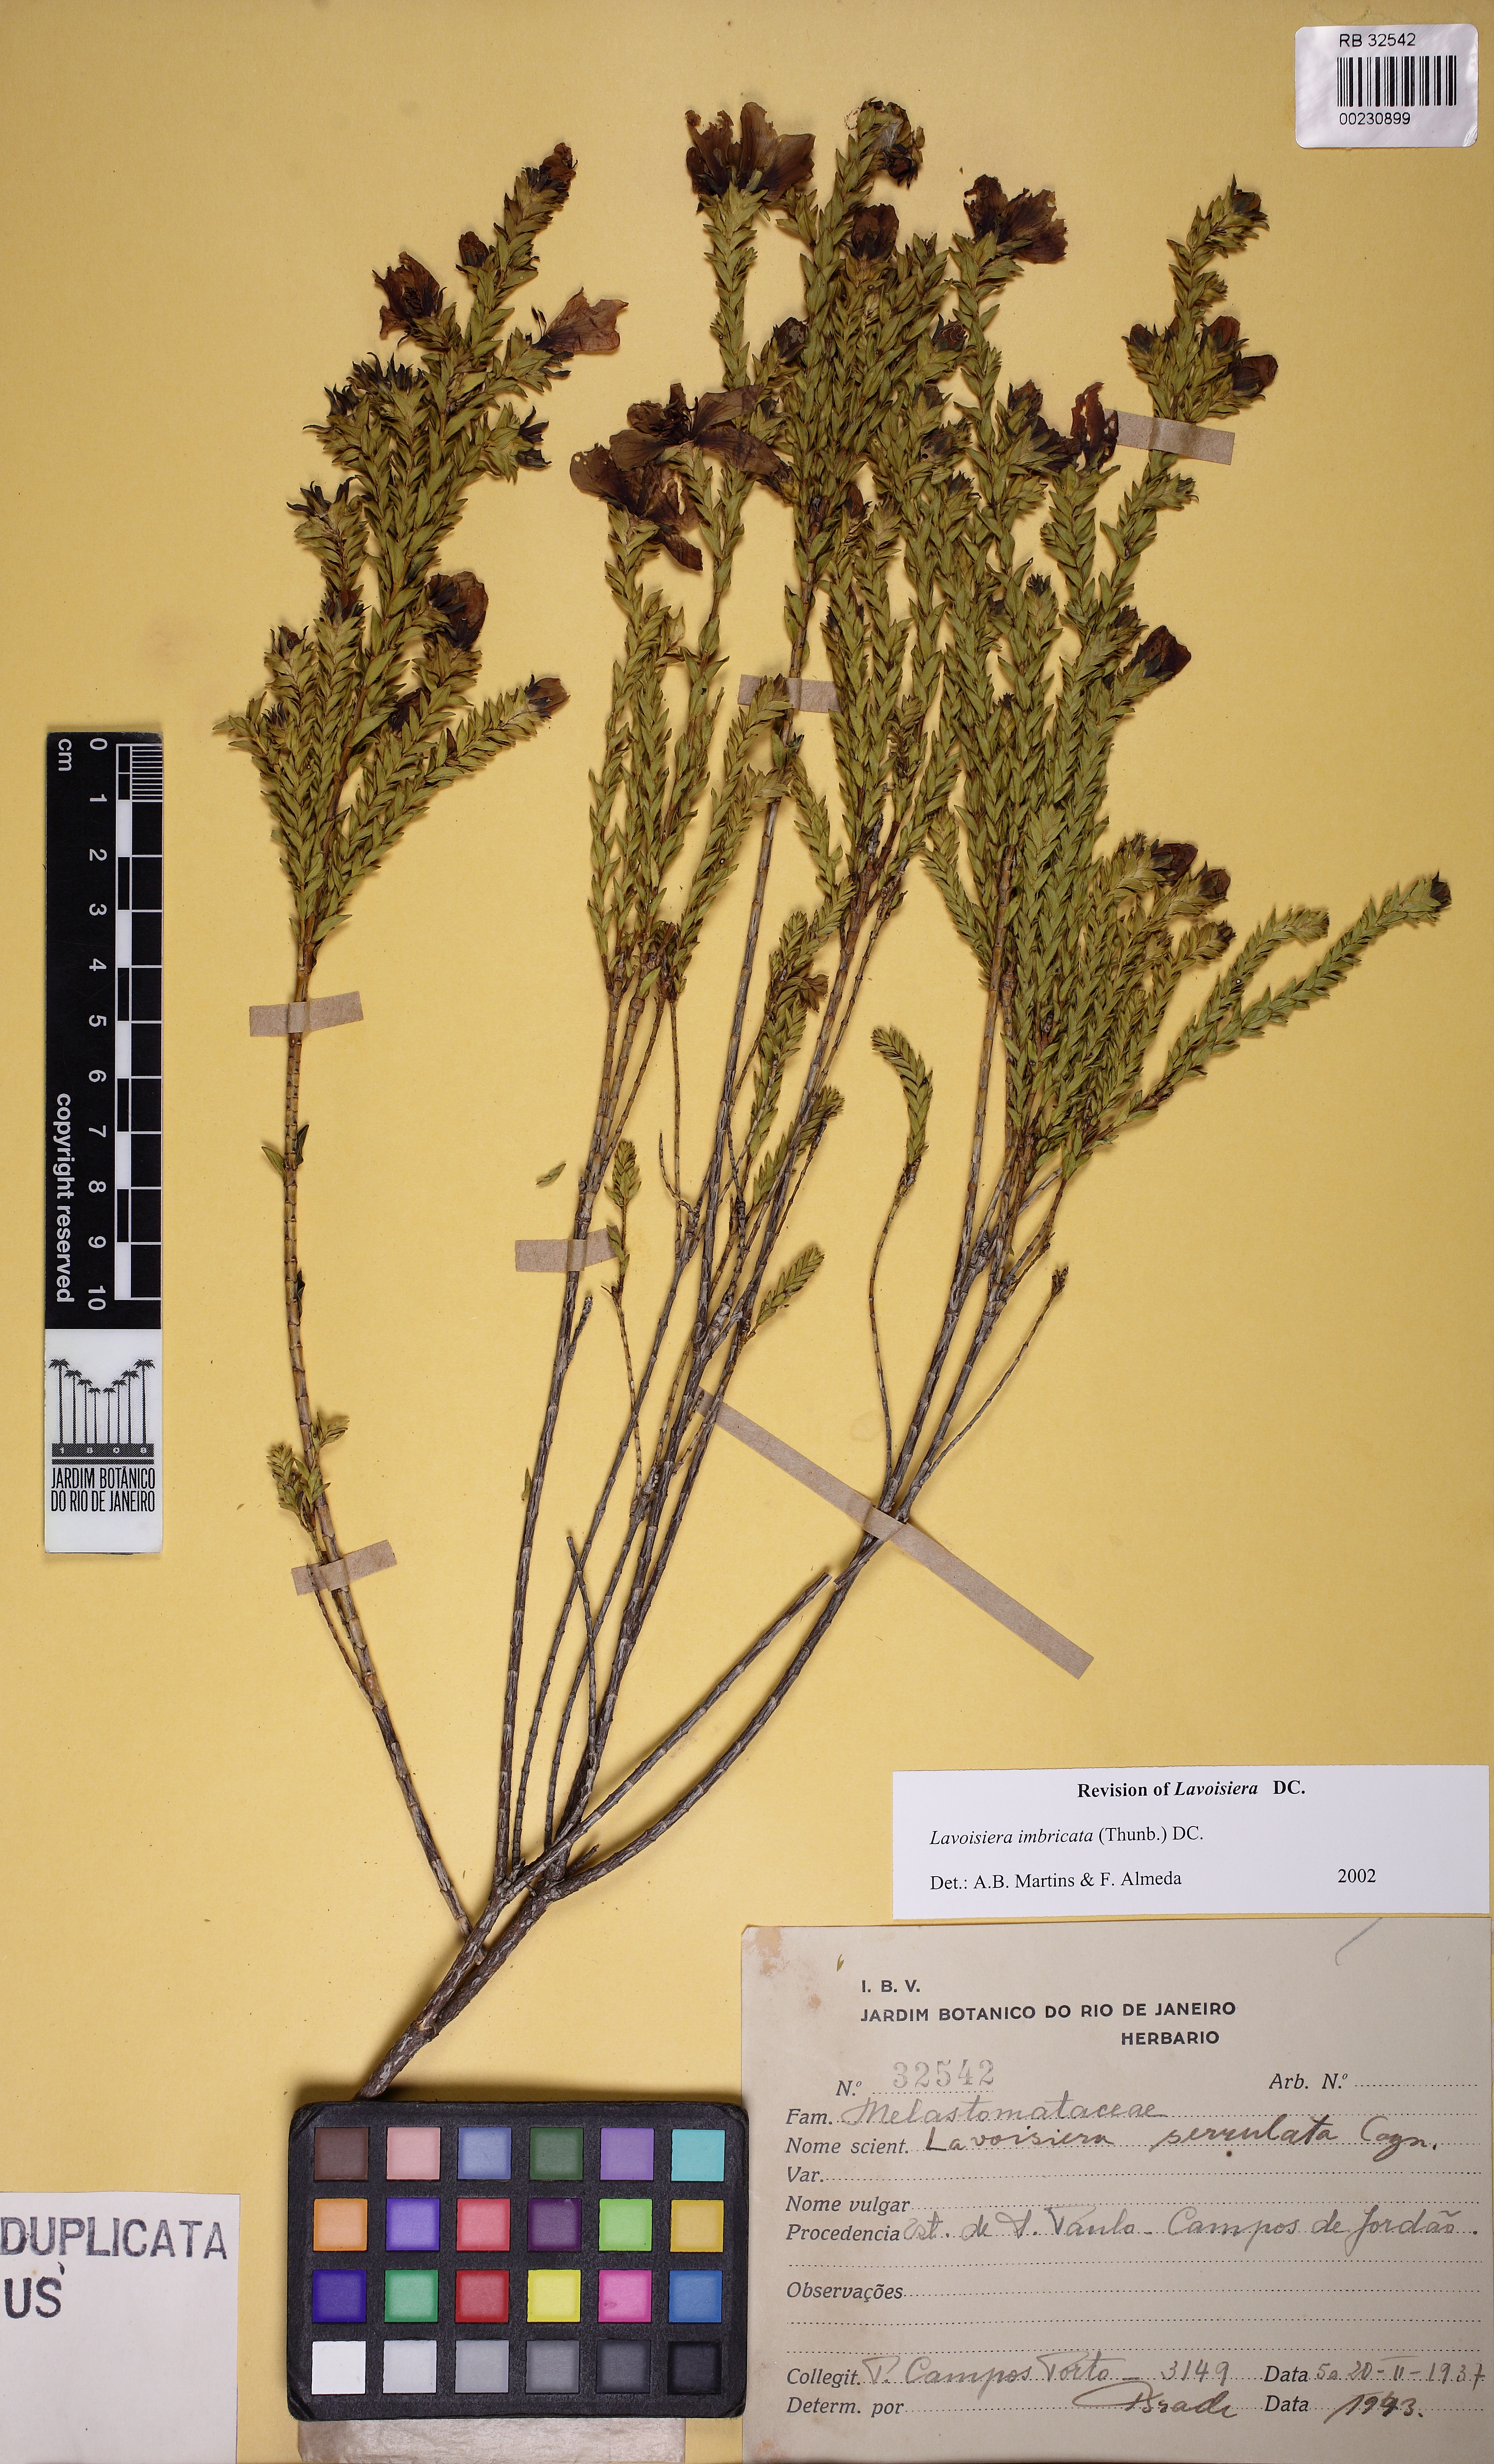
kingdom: Plantae
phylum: Tracheophyta
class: Magnoliopsida
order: Myrtales
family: Melastomataceae
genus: Microlicia
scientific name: Microlicia cataphracta
